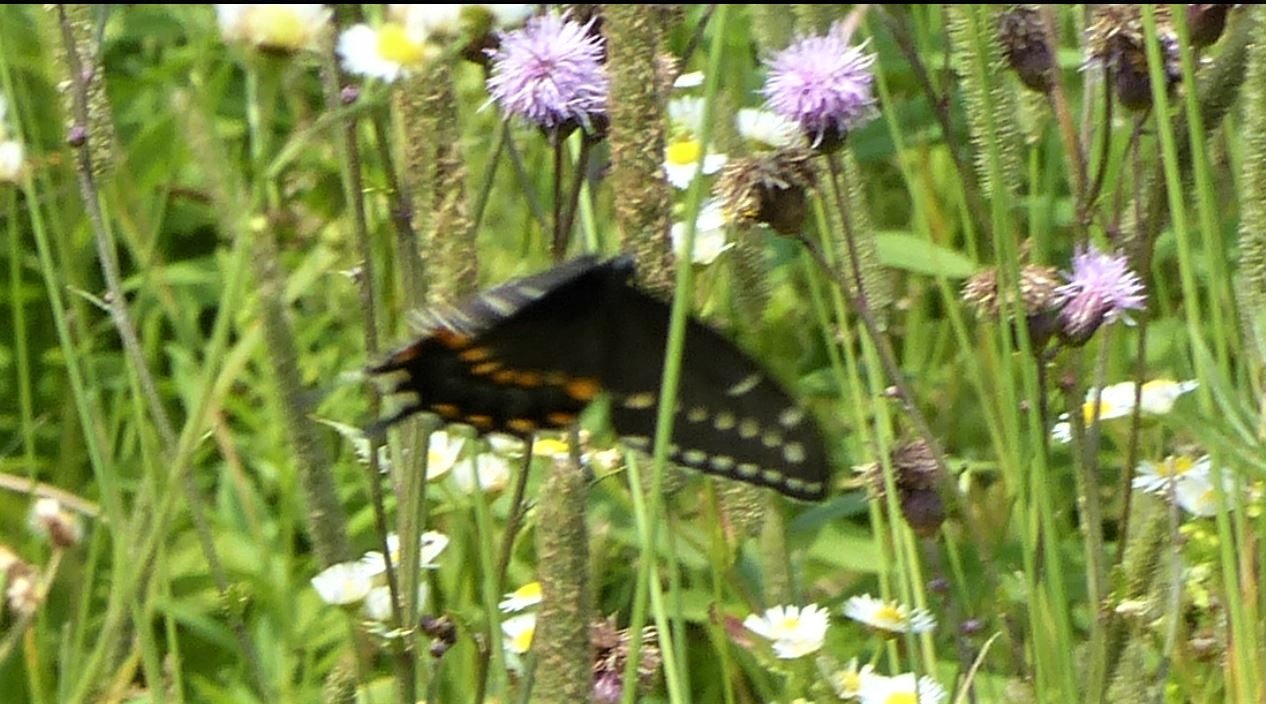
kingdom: Animalia
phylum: Arthropoda
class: Insecta
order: Lepidoptera
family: Papilionidae
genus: Papilio
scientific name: Papilio polyxenes
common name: Black Swallowtail
